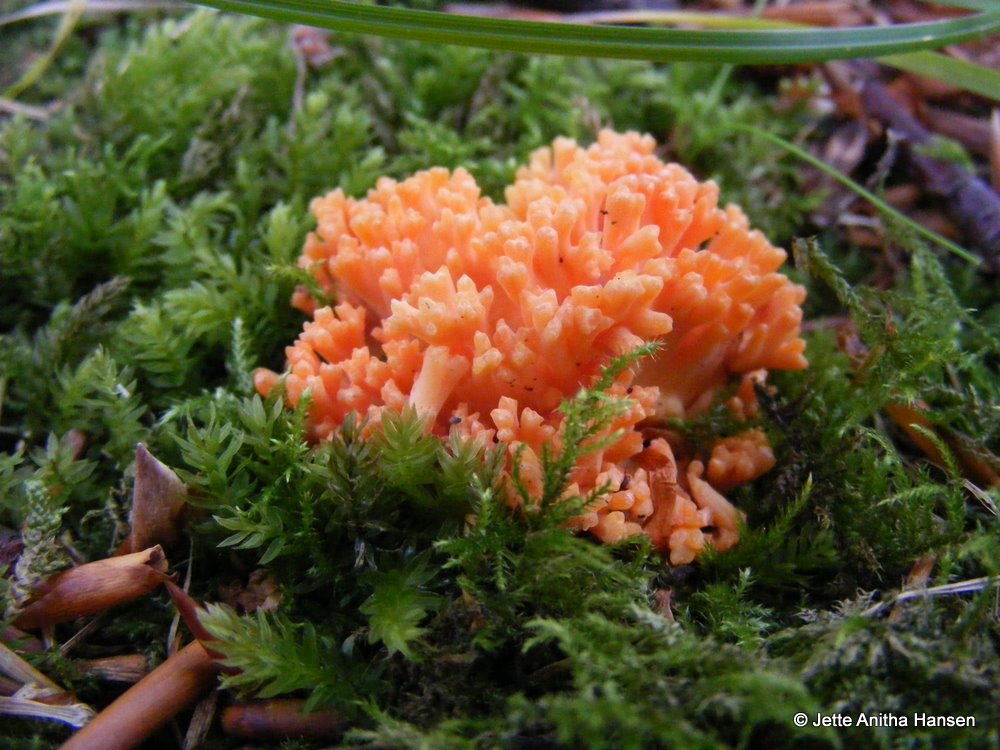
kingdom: Fungi
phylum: Basidiomycota
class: Agaricomycetes
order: Gomphales
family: Gomphaceae
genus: Ramaria
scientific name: Ramaria fagetorum
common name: abrikos-koralsvamp
